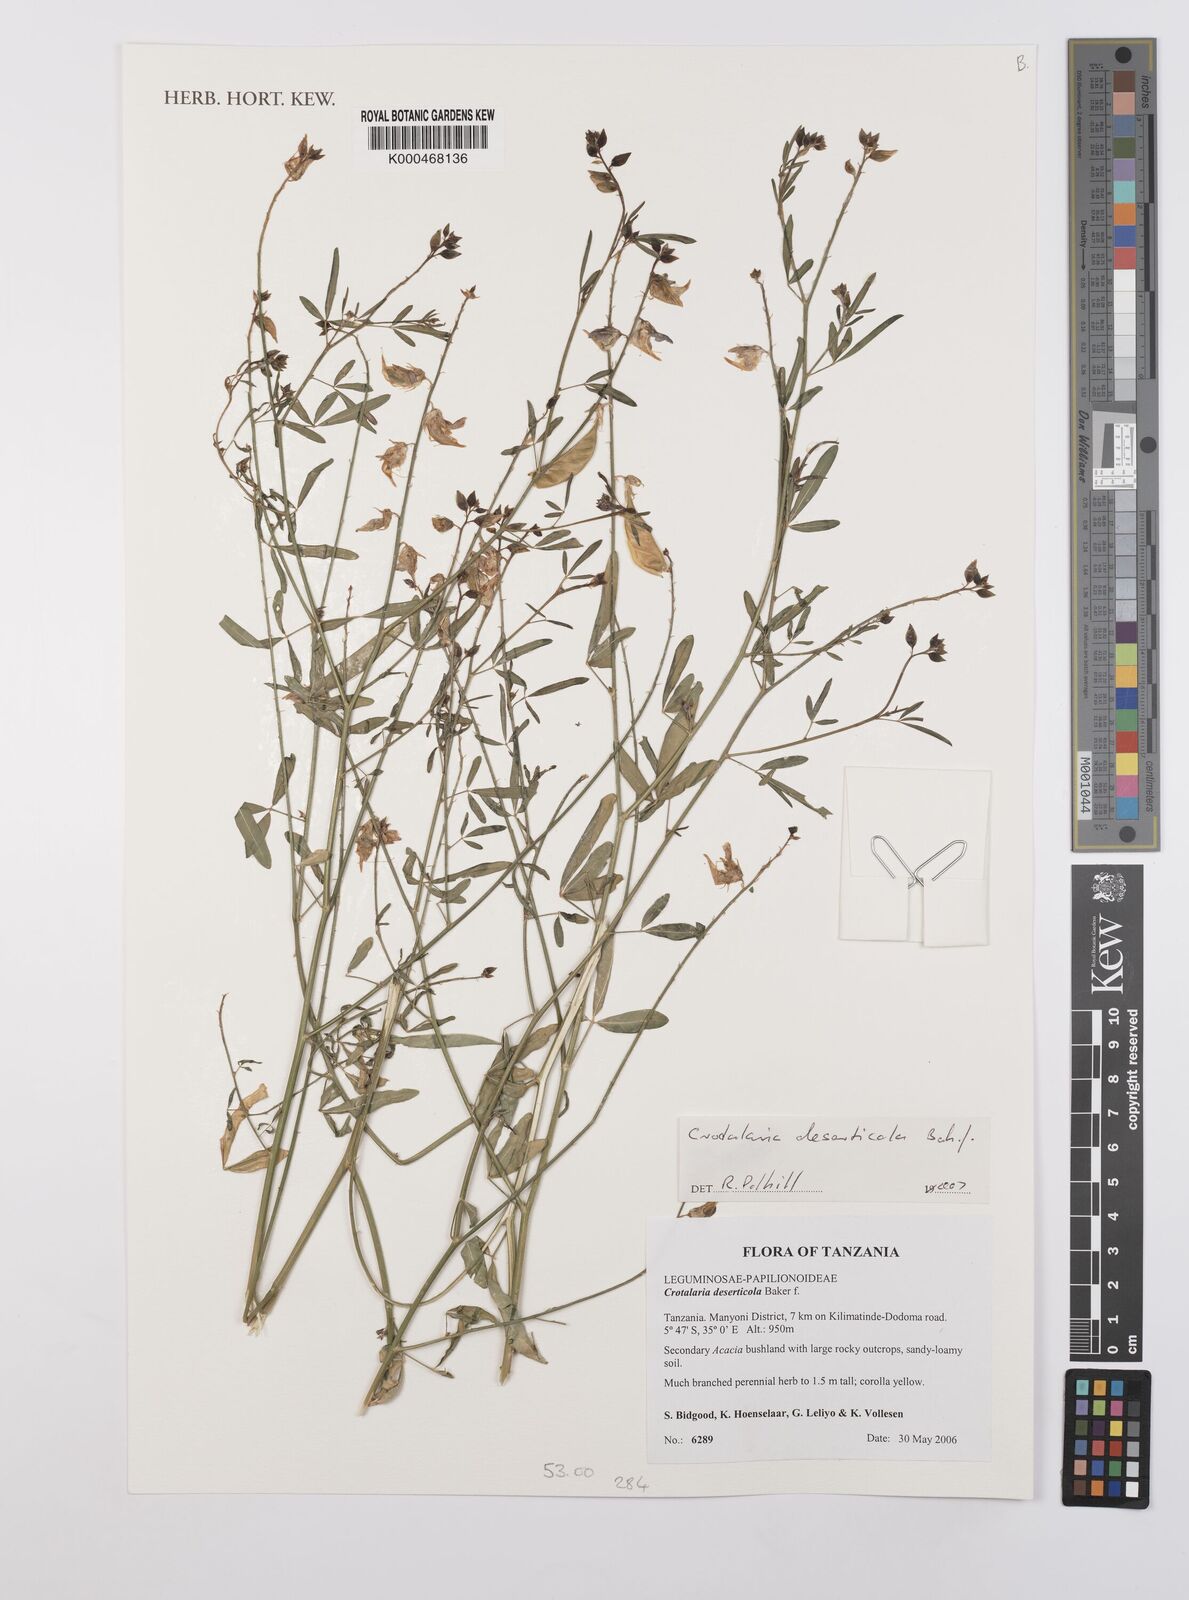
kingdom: Plantae
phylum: Tracheophyta
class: Magnoliopsida
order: Fabales
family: Fabaceae
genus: Crotalaria
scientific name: Crotalaria deserticola
